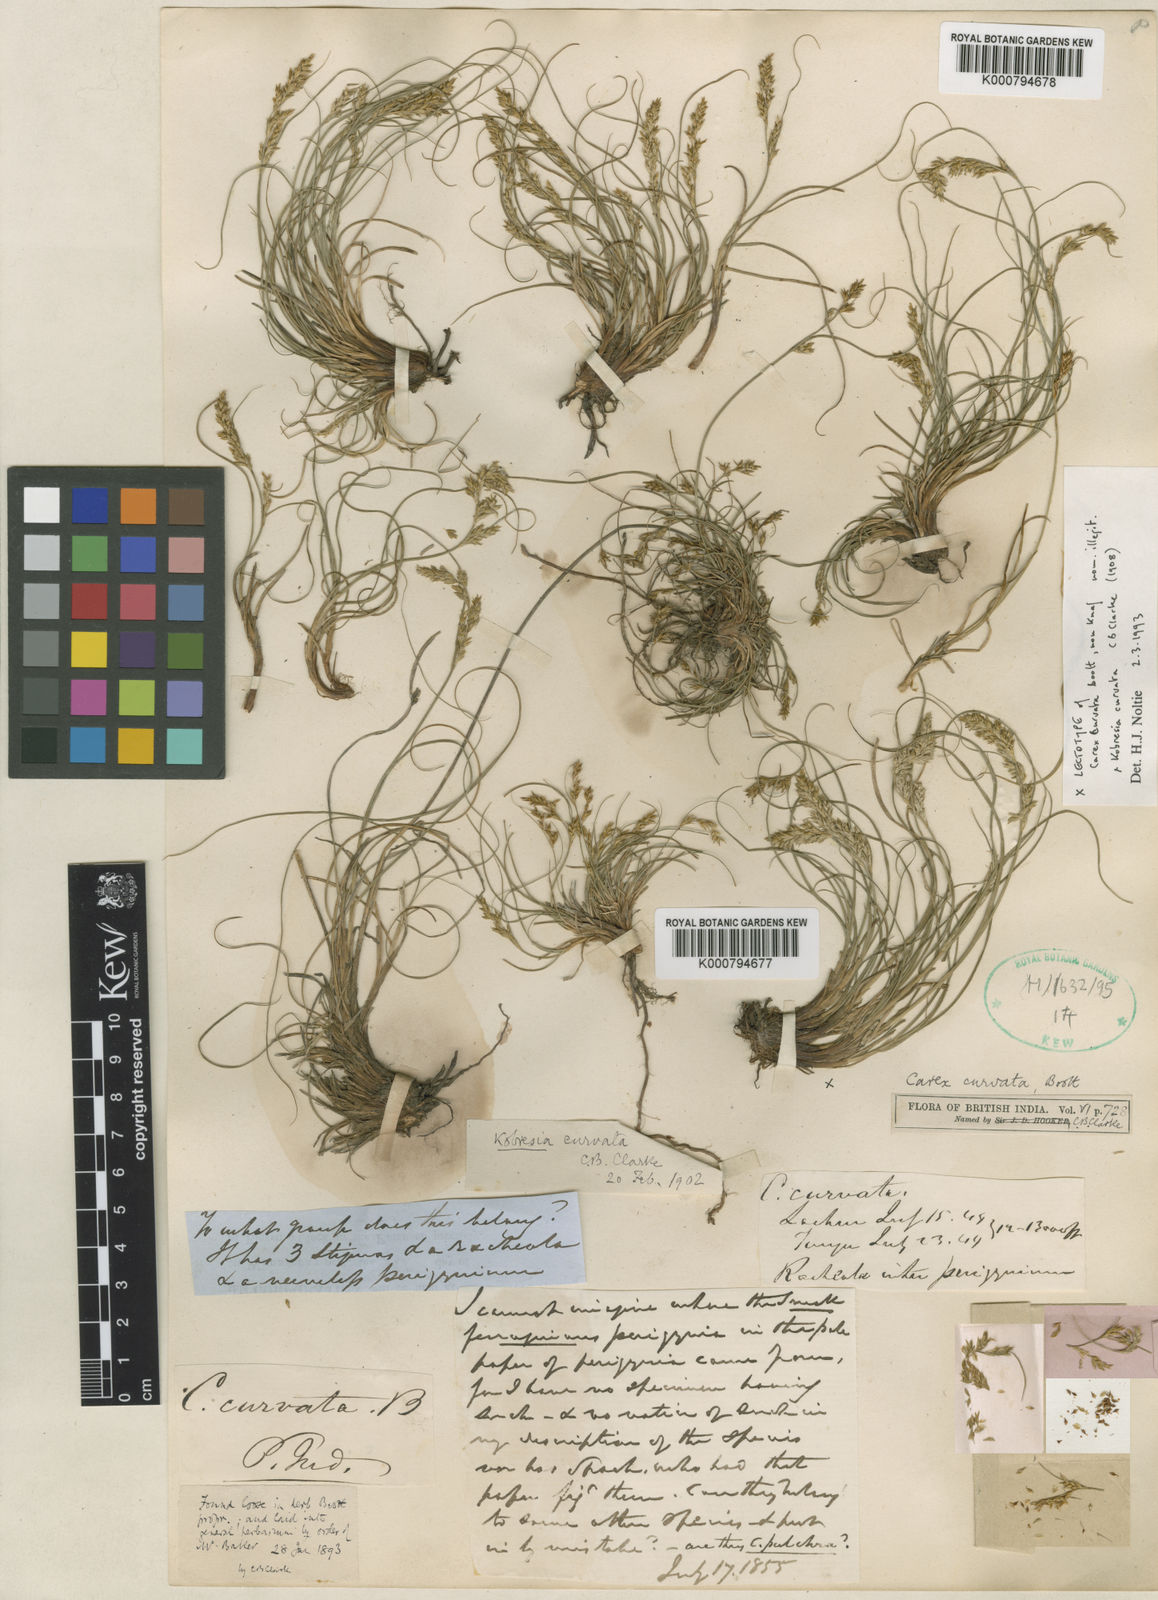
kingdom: Plantae
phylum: Tracheophyta
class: Liliopsida
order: Poales
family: Cyperaceae
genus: Carex
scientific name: Carex bonatiana
